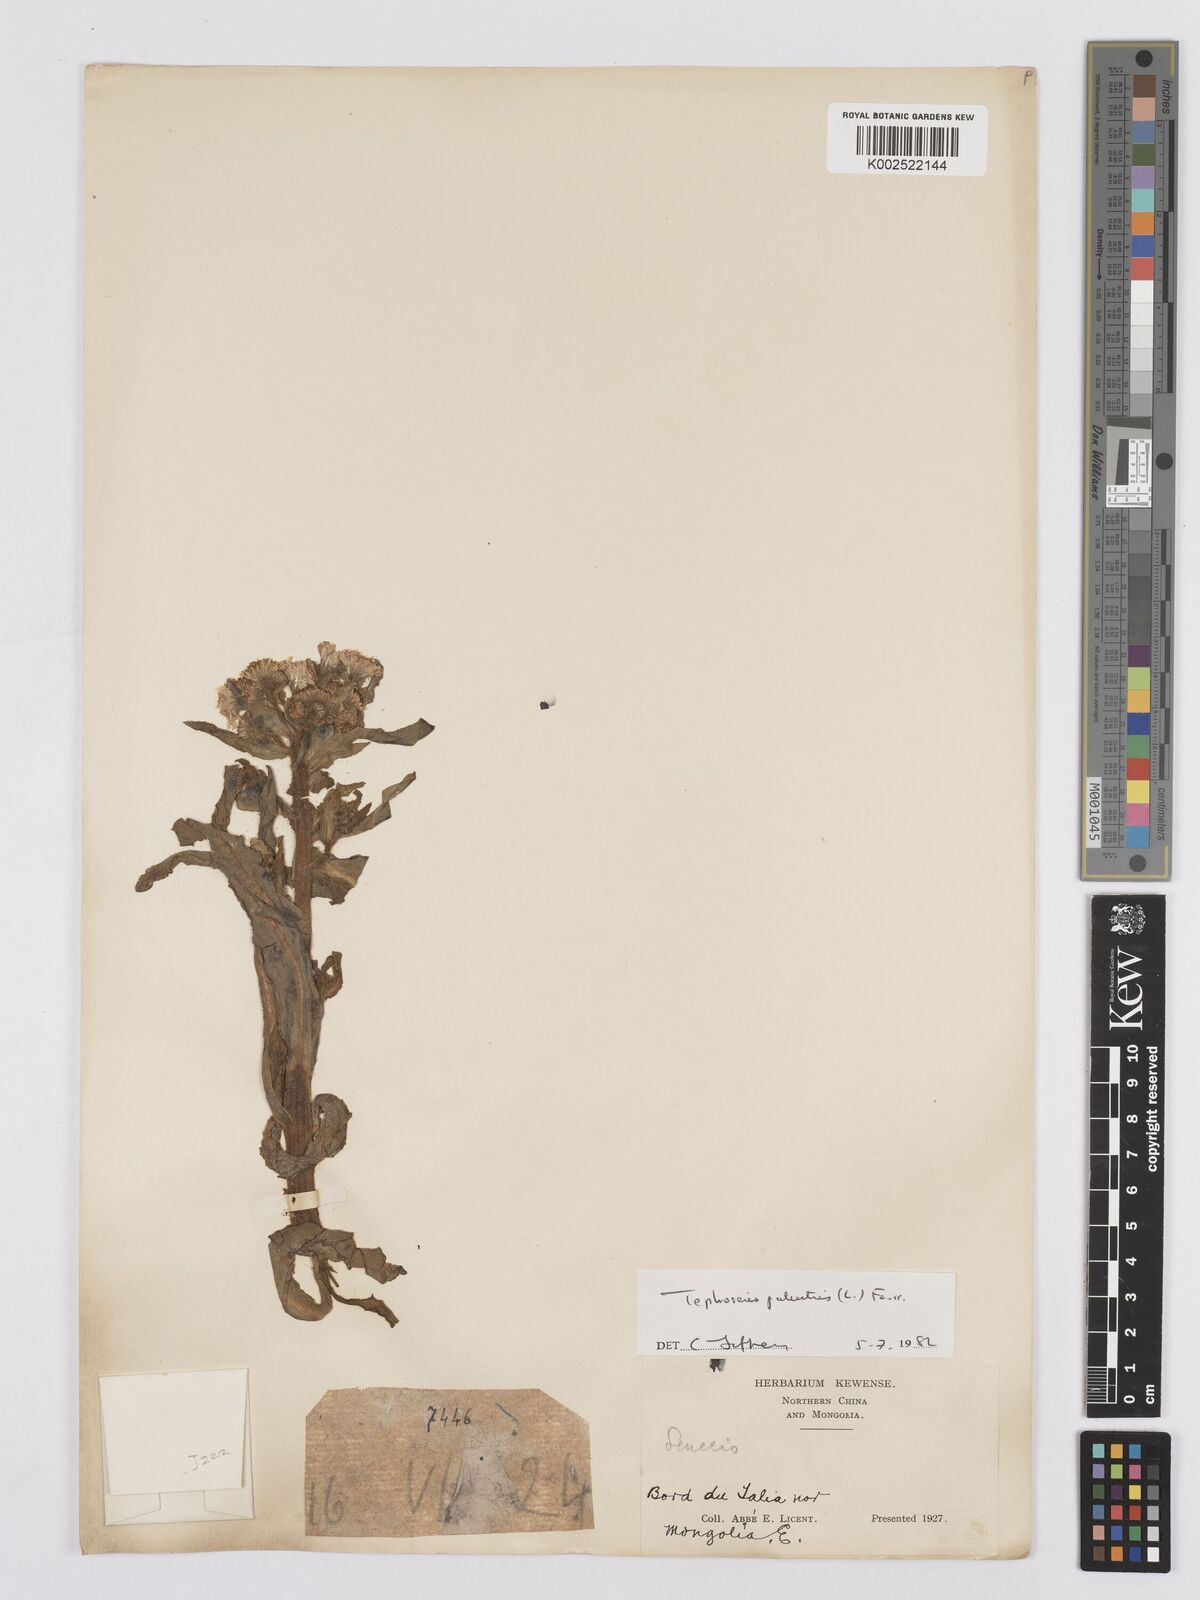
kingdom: Plantae
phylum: Tracheophyta
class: Magnoliopsida
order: Asterales
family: Asteraceae
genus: Tephroseris
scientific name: Tephroseris palustris
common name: Marsh fleawort
